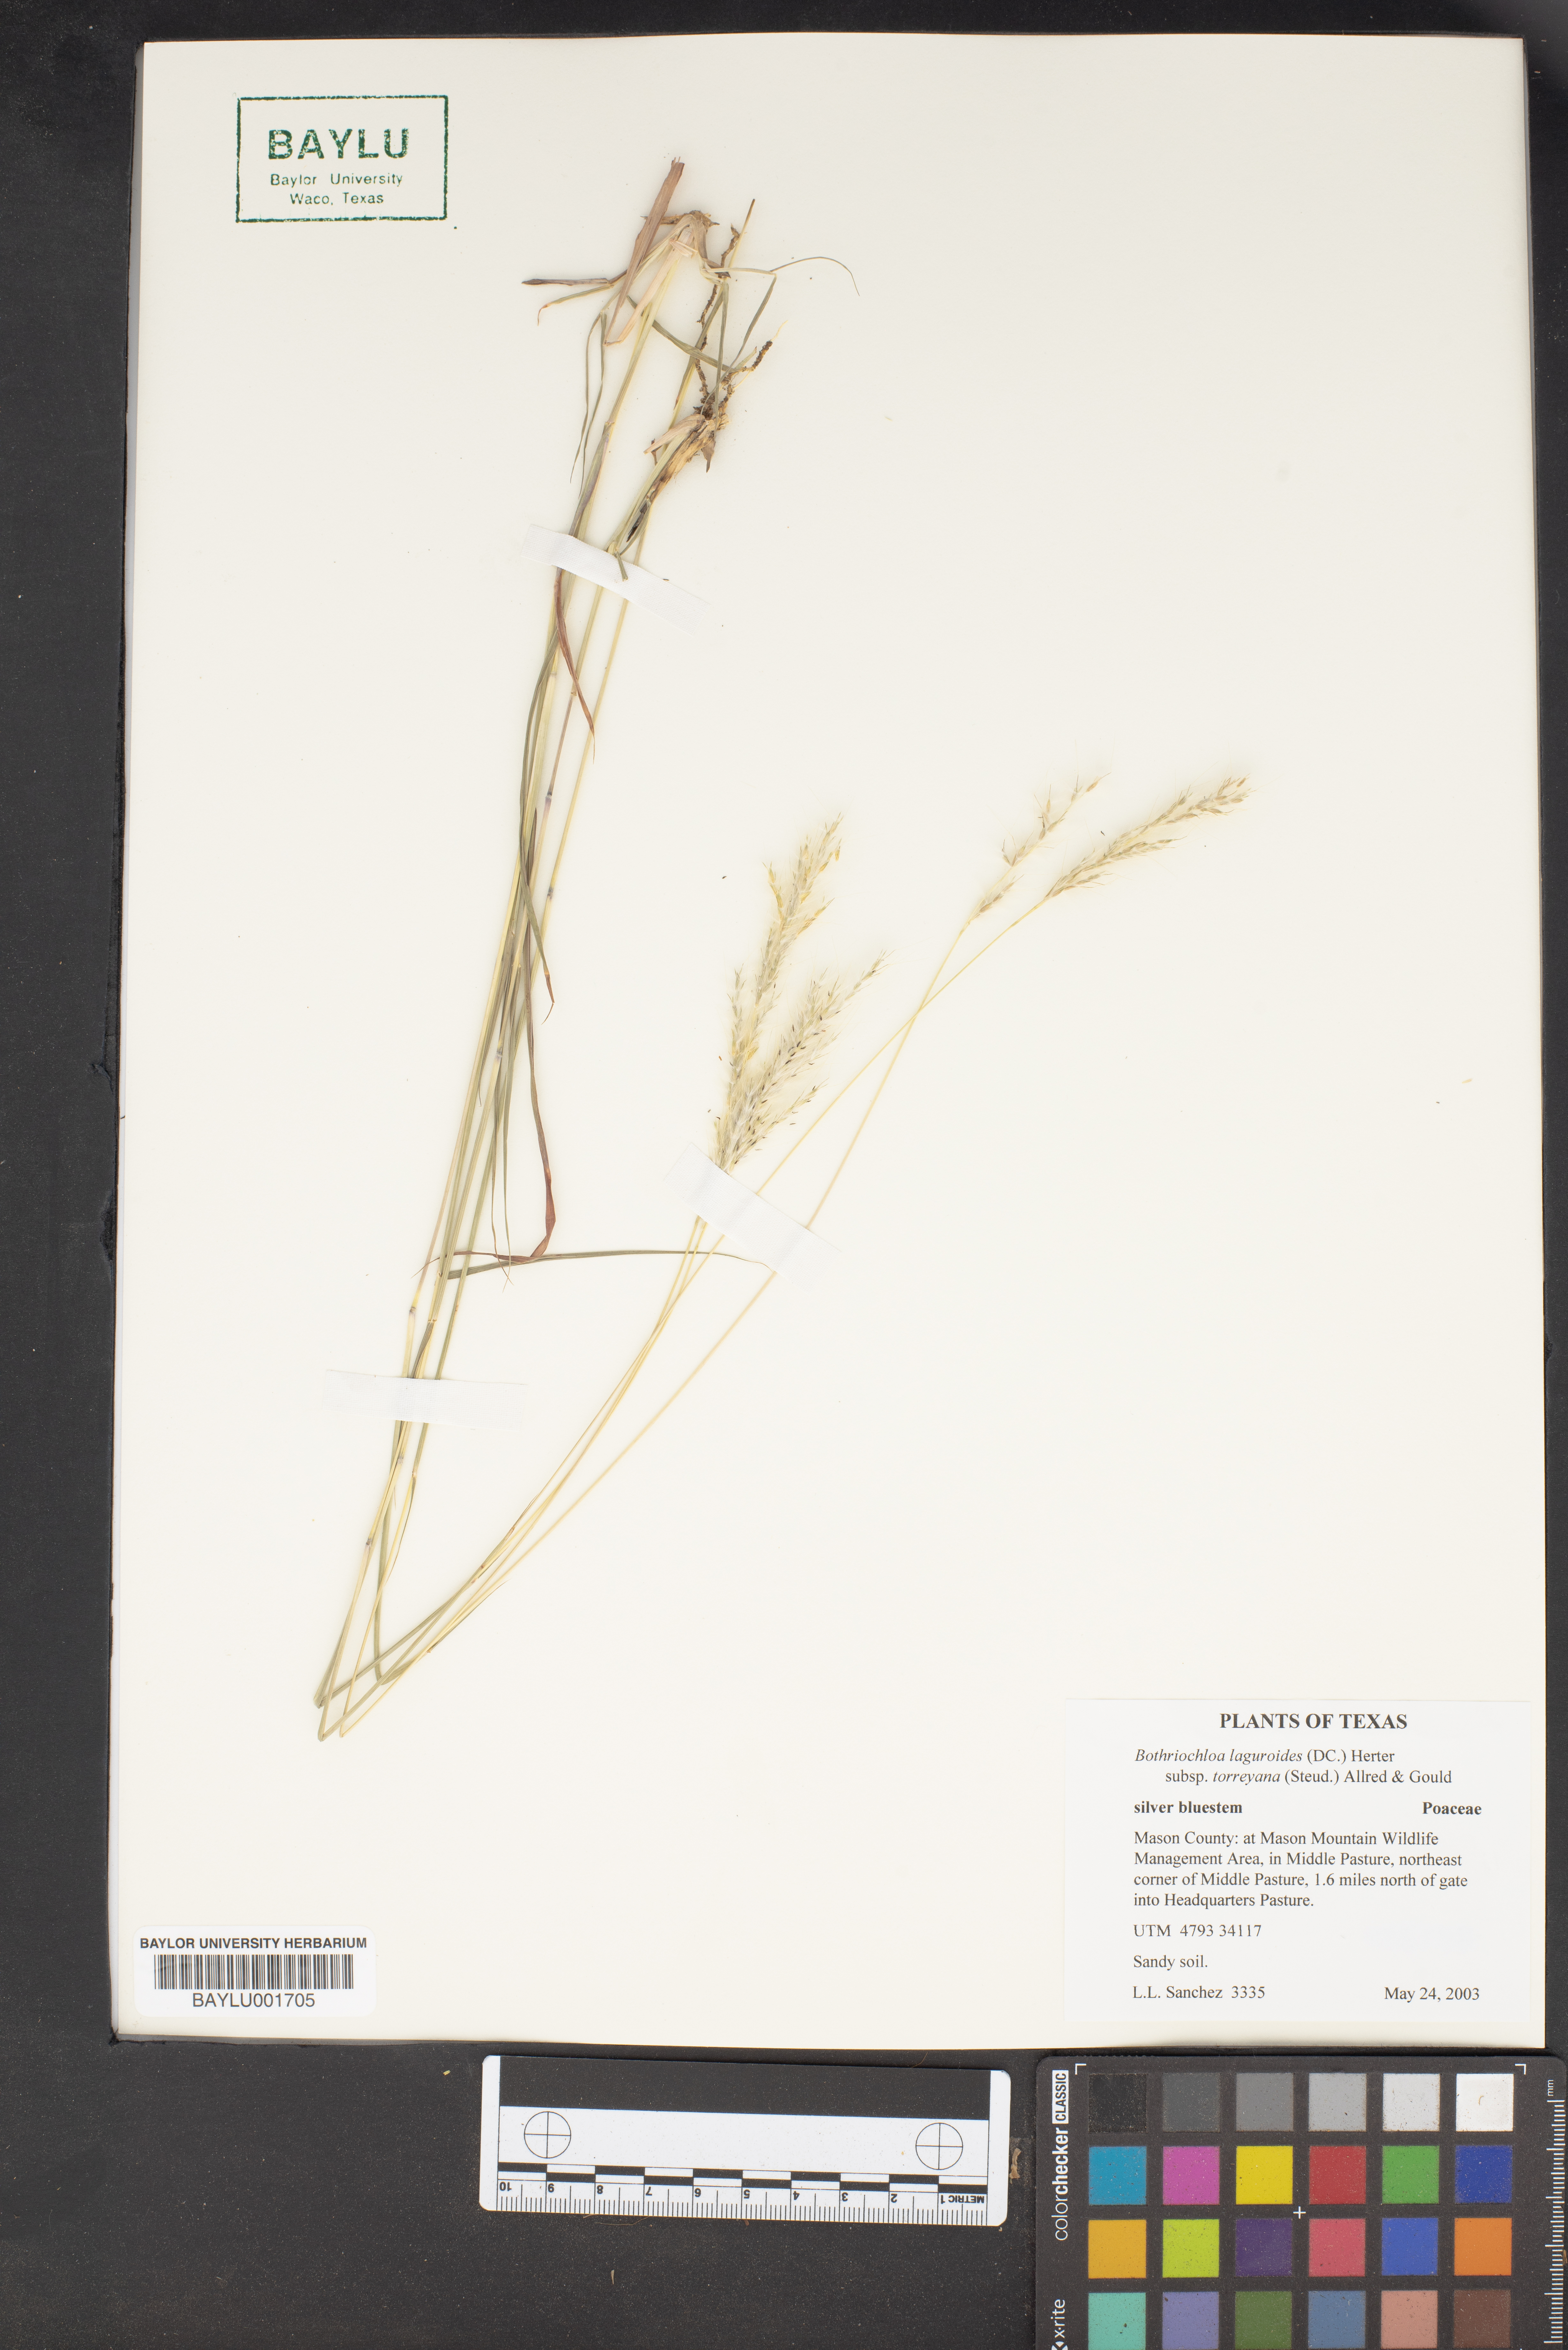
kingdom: Plantae
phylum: Tracheophyta
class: Liliopsida
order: Poales
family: Poaceae
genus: Bothriochloa
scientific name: Bothriochloa torreyana
